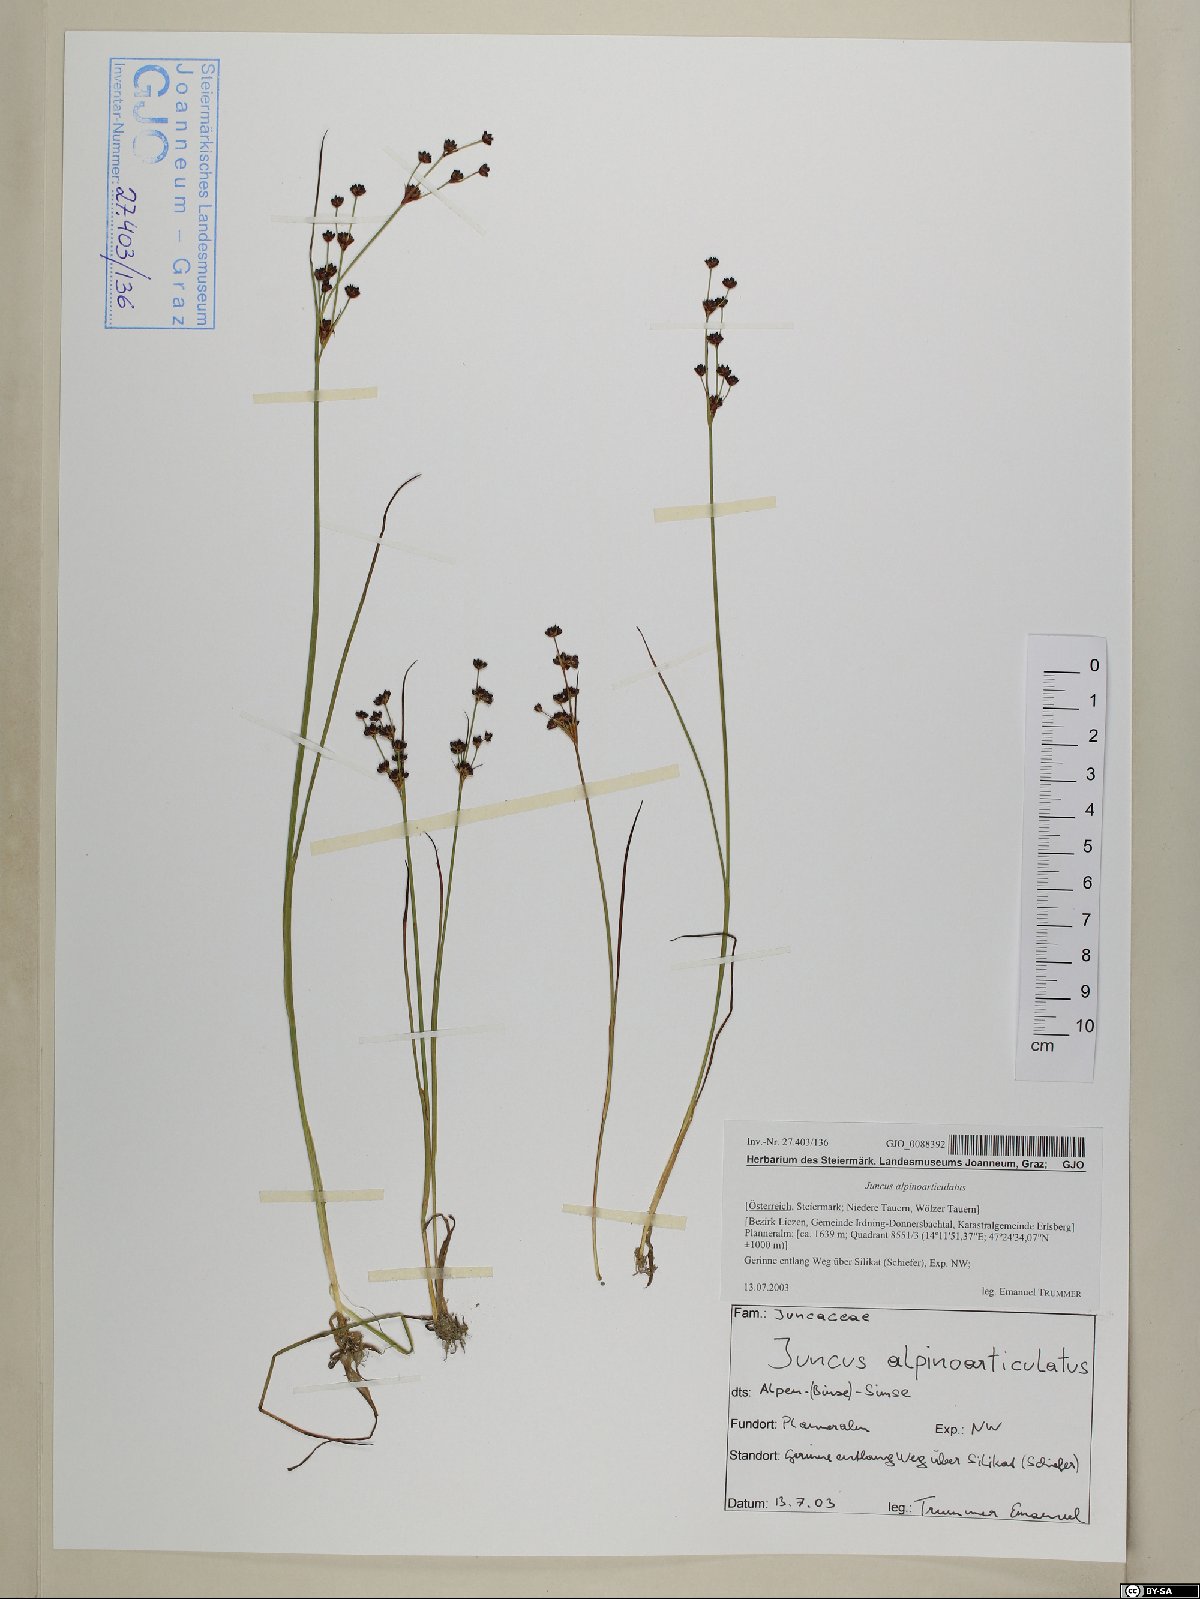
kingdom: Plantae
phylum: Tracheophyta
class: Liliopsida
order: Poales
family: Juncaceae
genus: Juncus
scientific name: Juncus alpinoarticulatus
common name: Alpine rush
